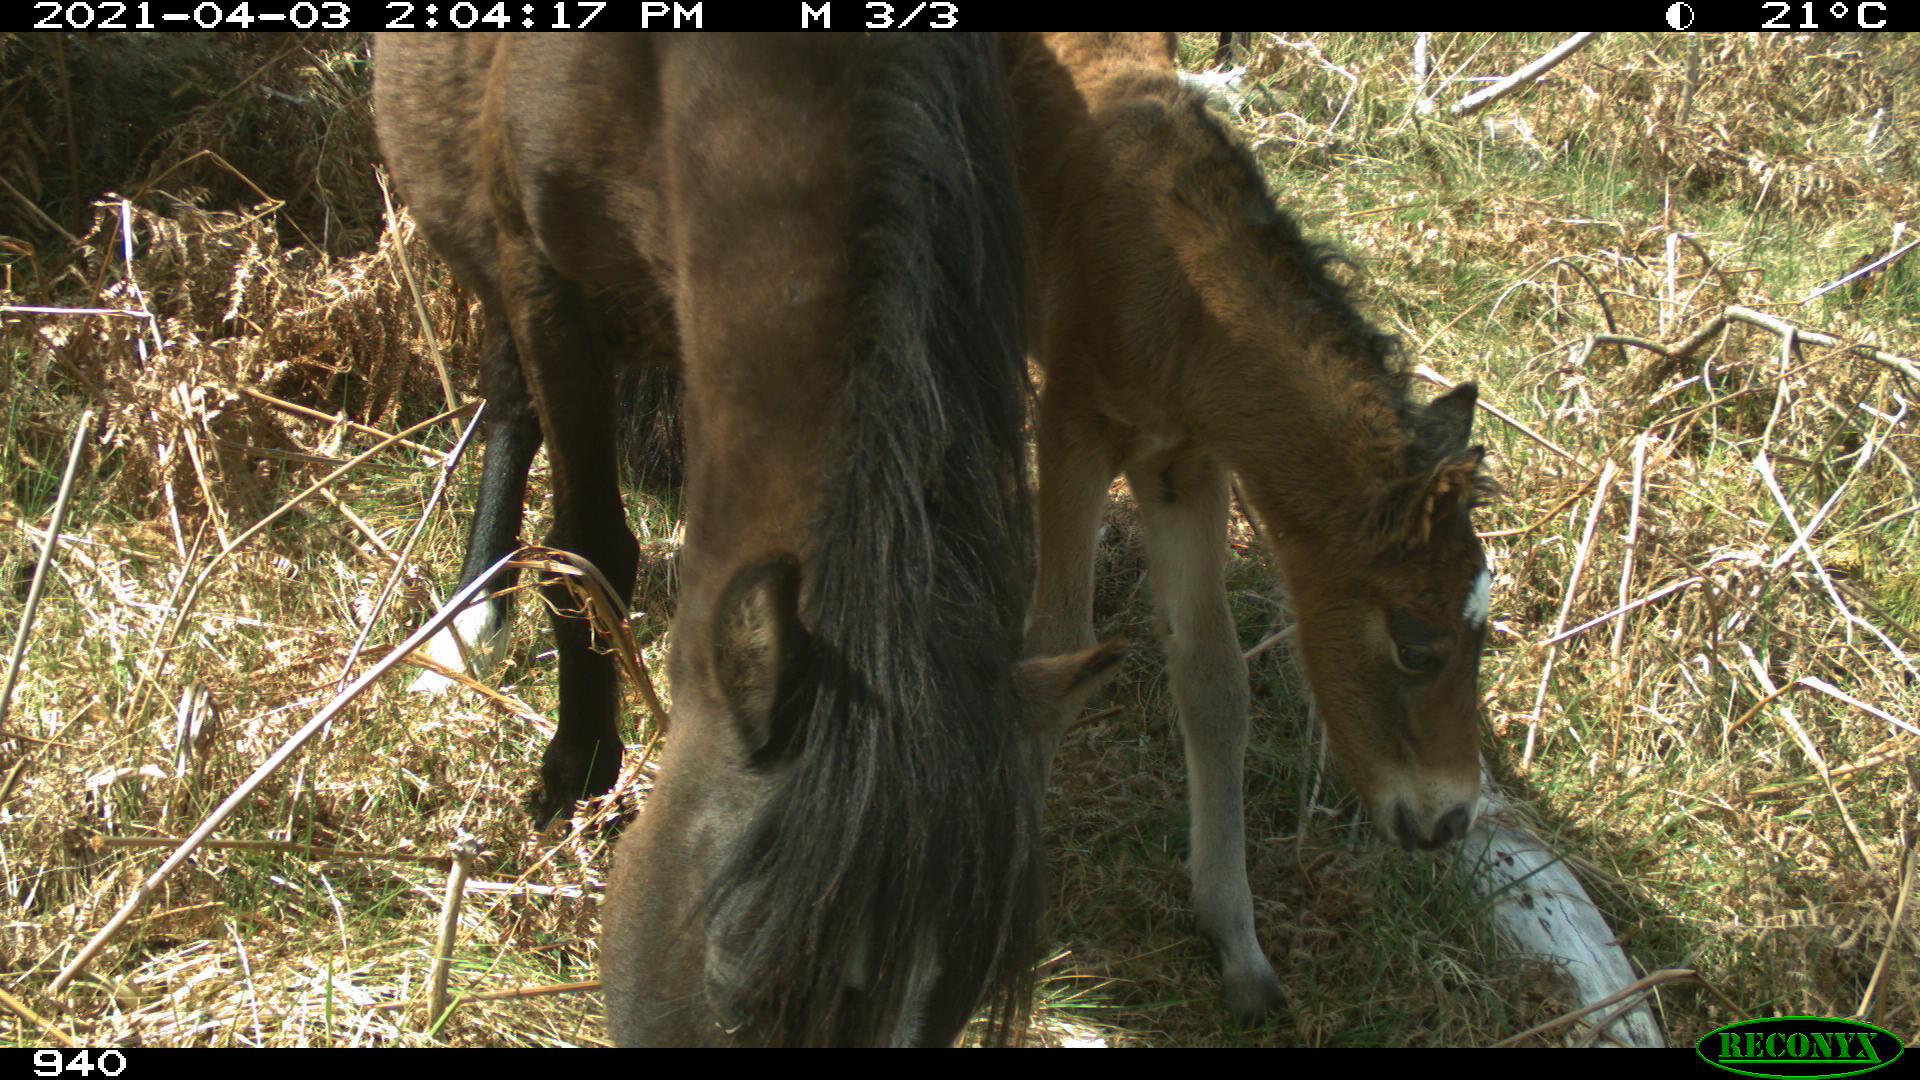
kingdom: Animalia
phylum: Chordata
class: Mammalia
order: Perissodactyla
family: Equidae
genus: Equus
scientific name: Equus caballus
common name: Horse
